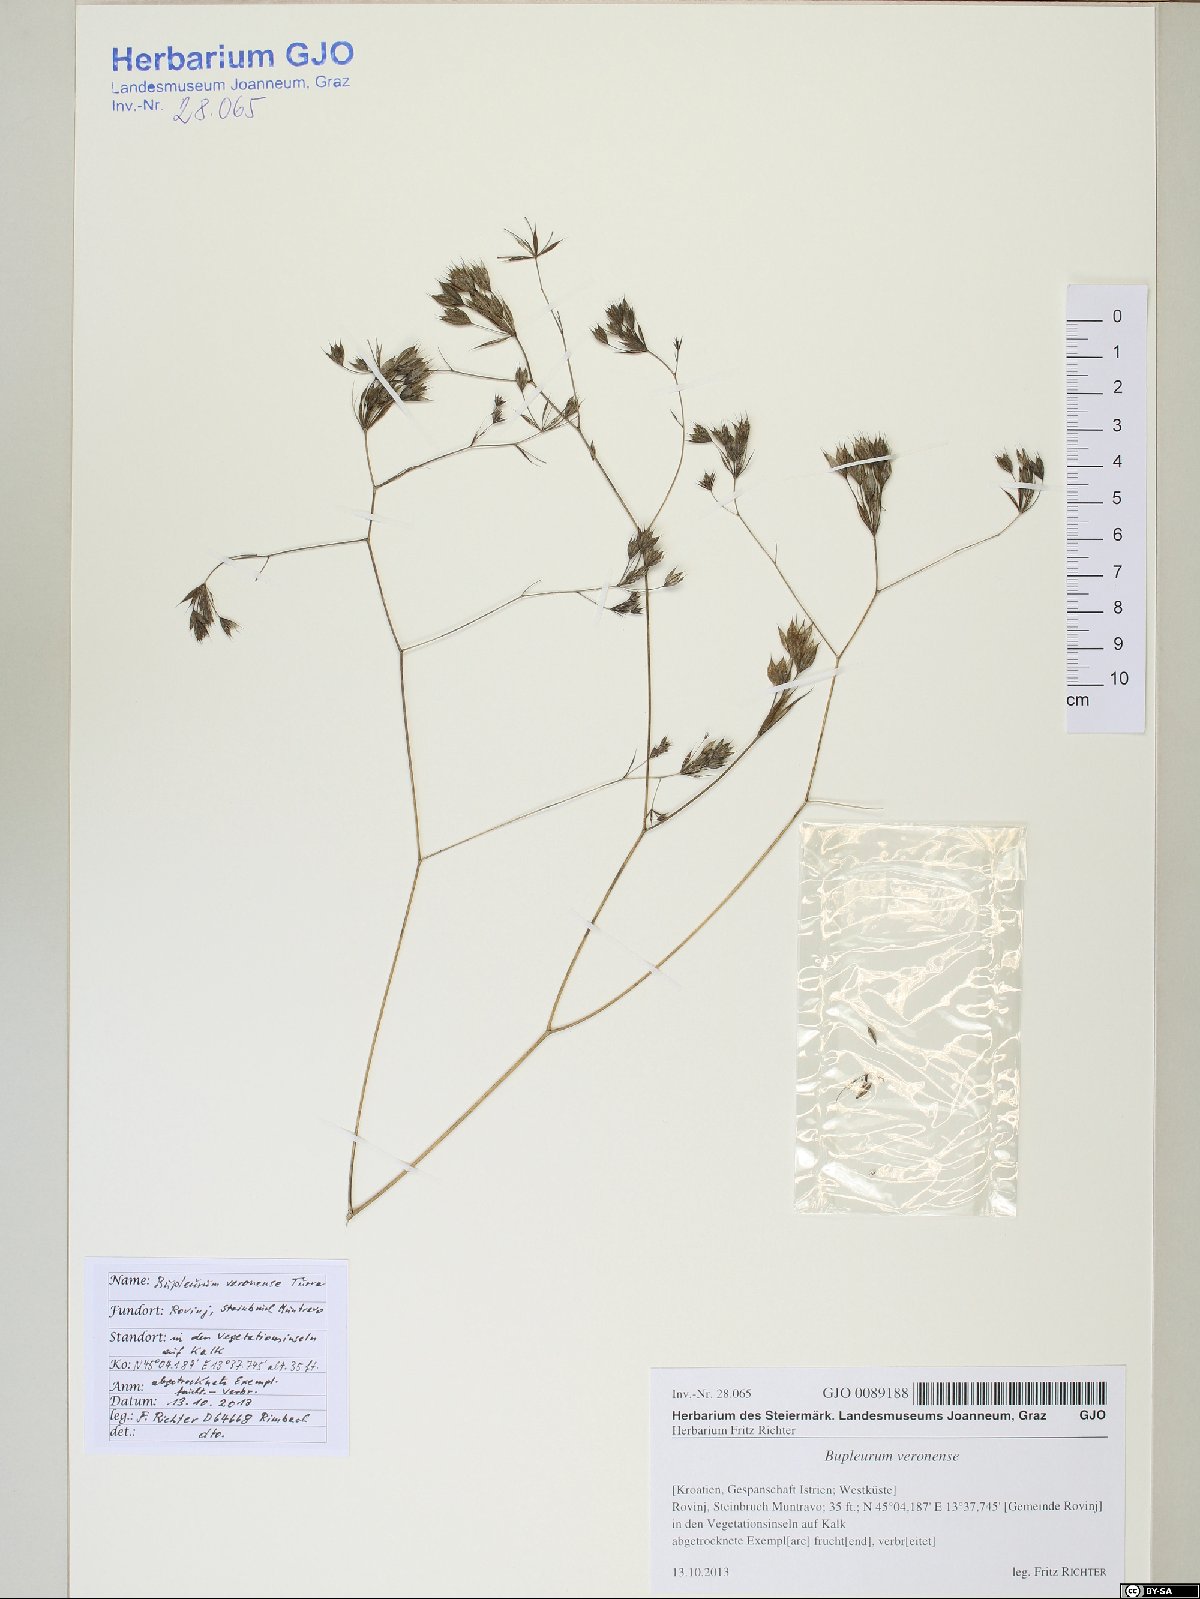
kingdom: Plantae
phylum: Tracheophyta
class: Magnoliopsida
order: Apiales
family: Apiaceae
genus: Bupleurum
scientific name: Bupleurum veronense
